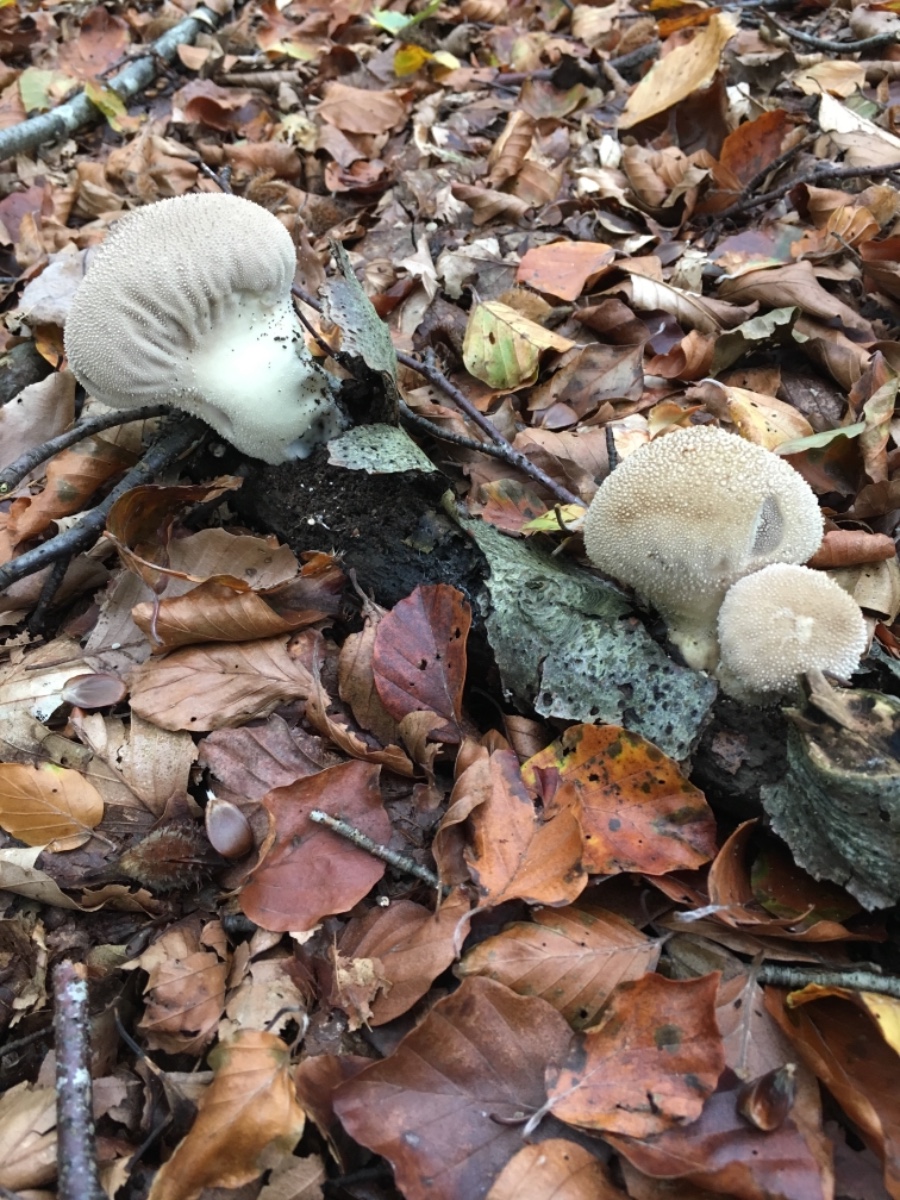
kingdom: Fungi
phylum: Basidiomycota
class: Agaricomycetes
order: Agaricales
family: Lycoperdaceae
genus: Lycoperdon
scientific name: Lycoperdon perlatum
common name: krystal-støvbold
